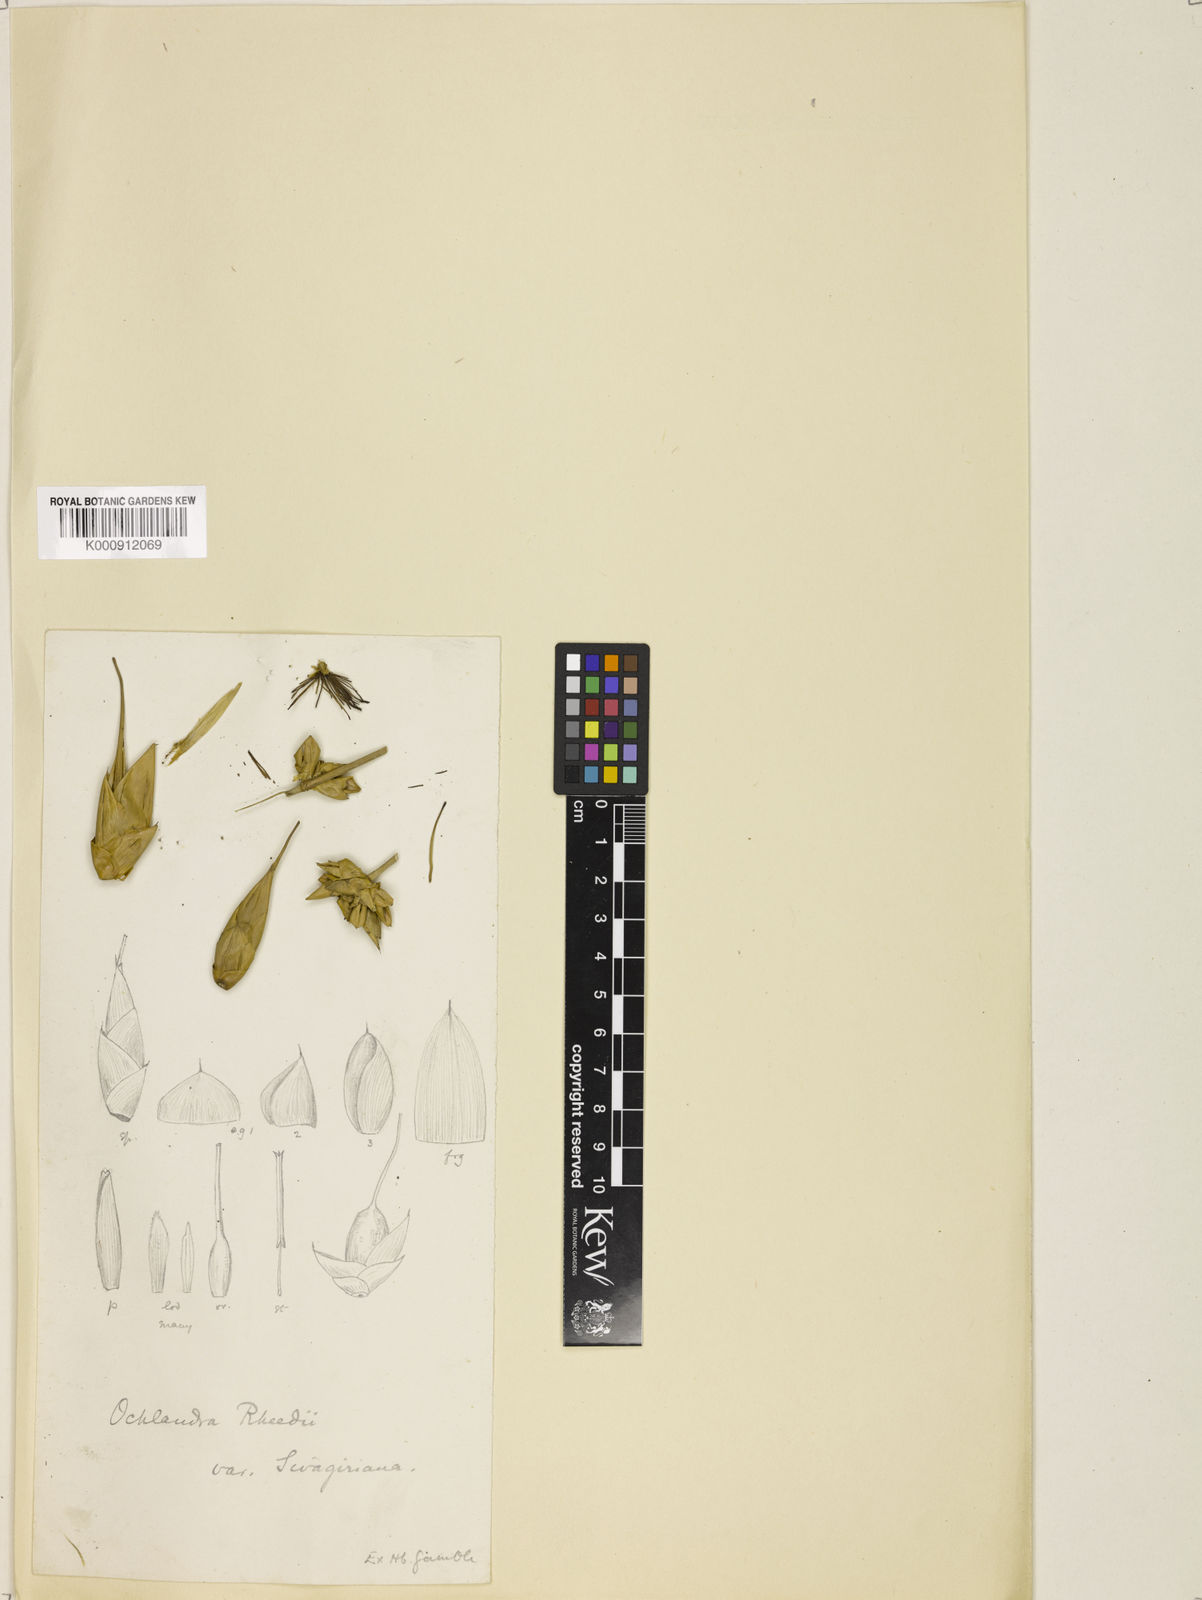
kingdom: Plantae
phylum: Tracheophyta
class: Liliopsida
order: Poales
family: Poaceae
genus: Ochlandra
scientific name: Ochlandra scriptoria
